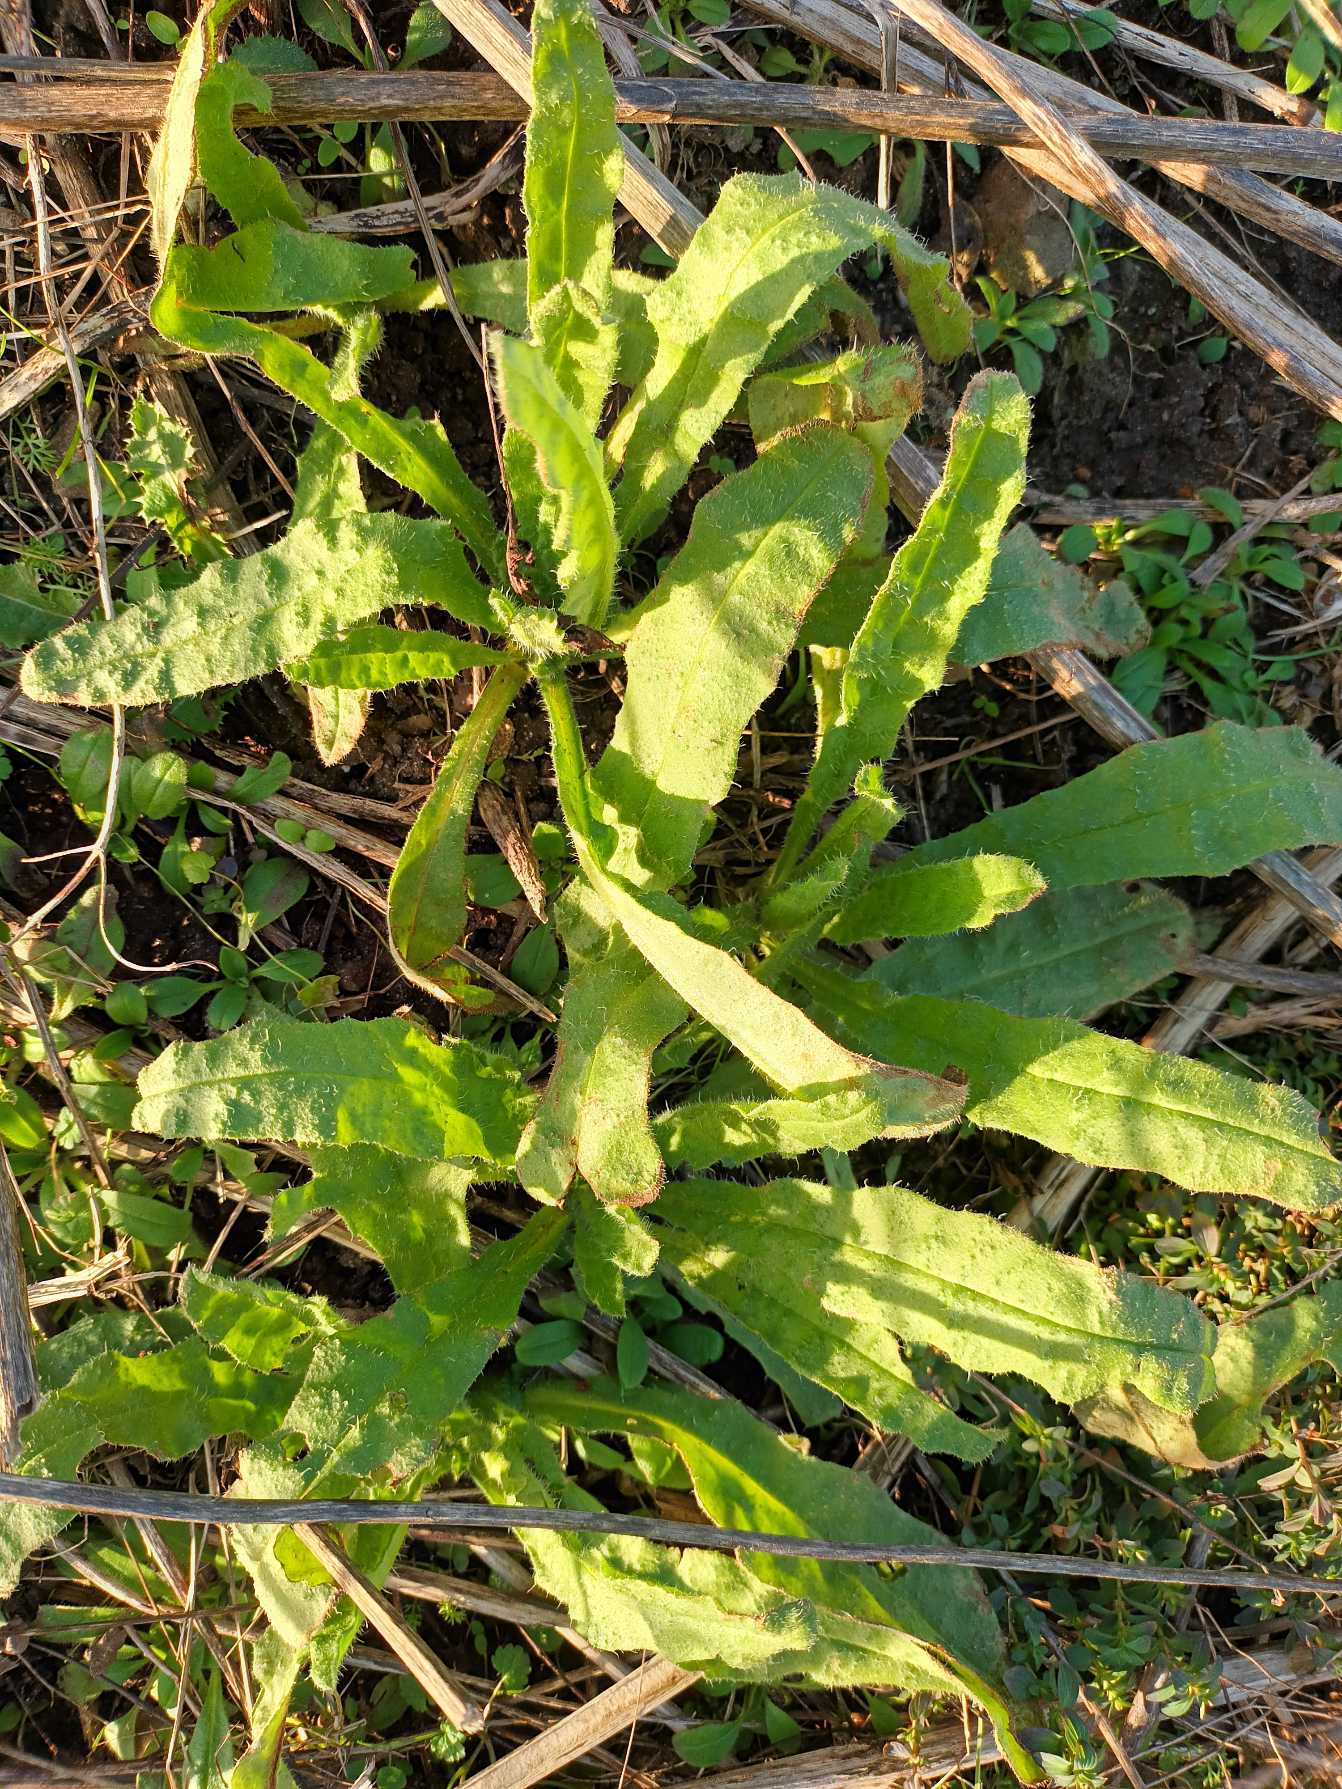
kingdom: Plantae
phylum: Tracheophyta
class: Magnoliopsida
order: Boraginales
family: Boraginaceae
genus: Lycopsis
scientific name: Lycopsis arvensis
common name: Krumhals
